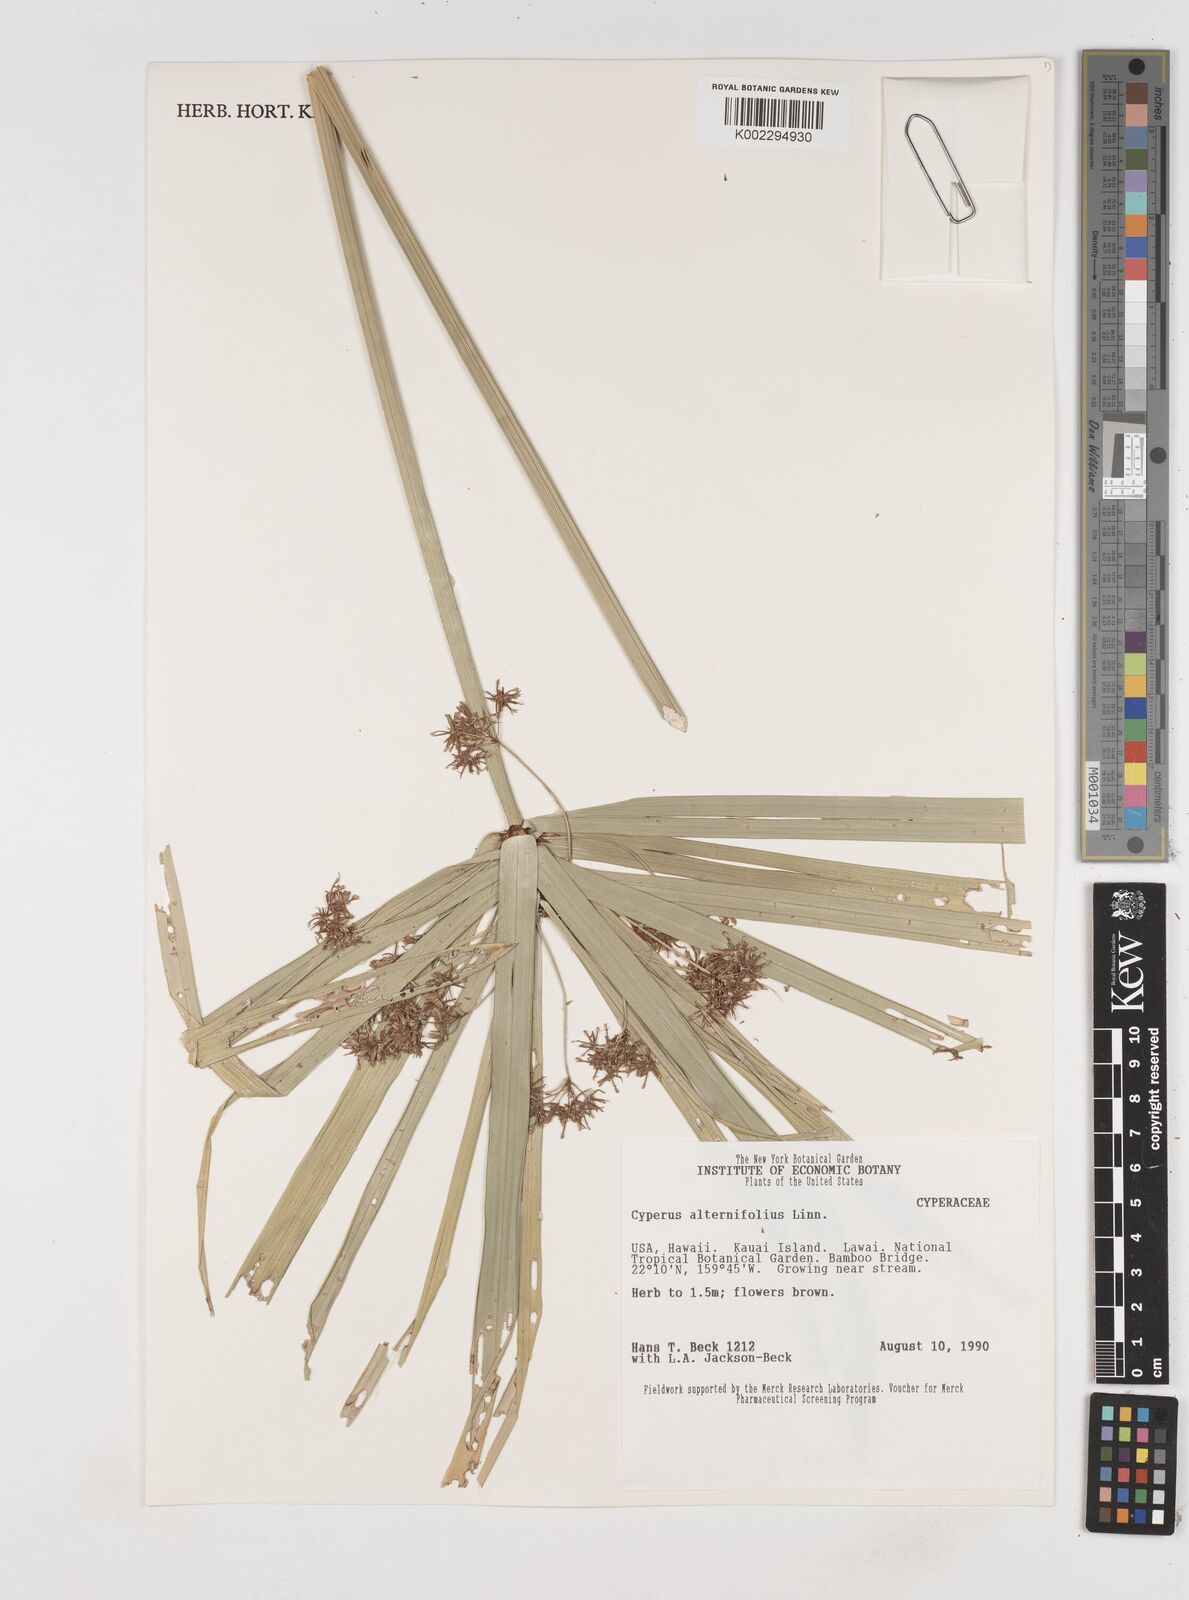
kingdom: Plantae
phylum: Tracheophyta
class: Liliopsida
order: Poales
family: Cyperaceae
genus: Cyperus
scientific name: Cyperus alternifolius
